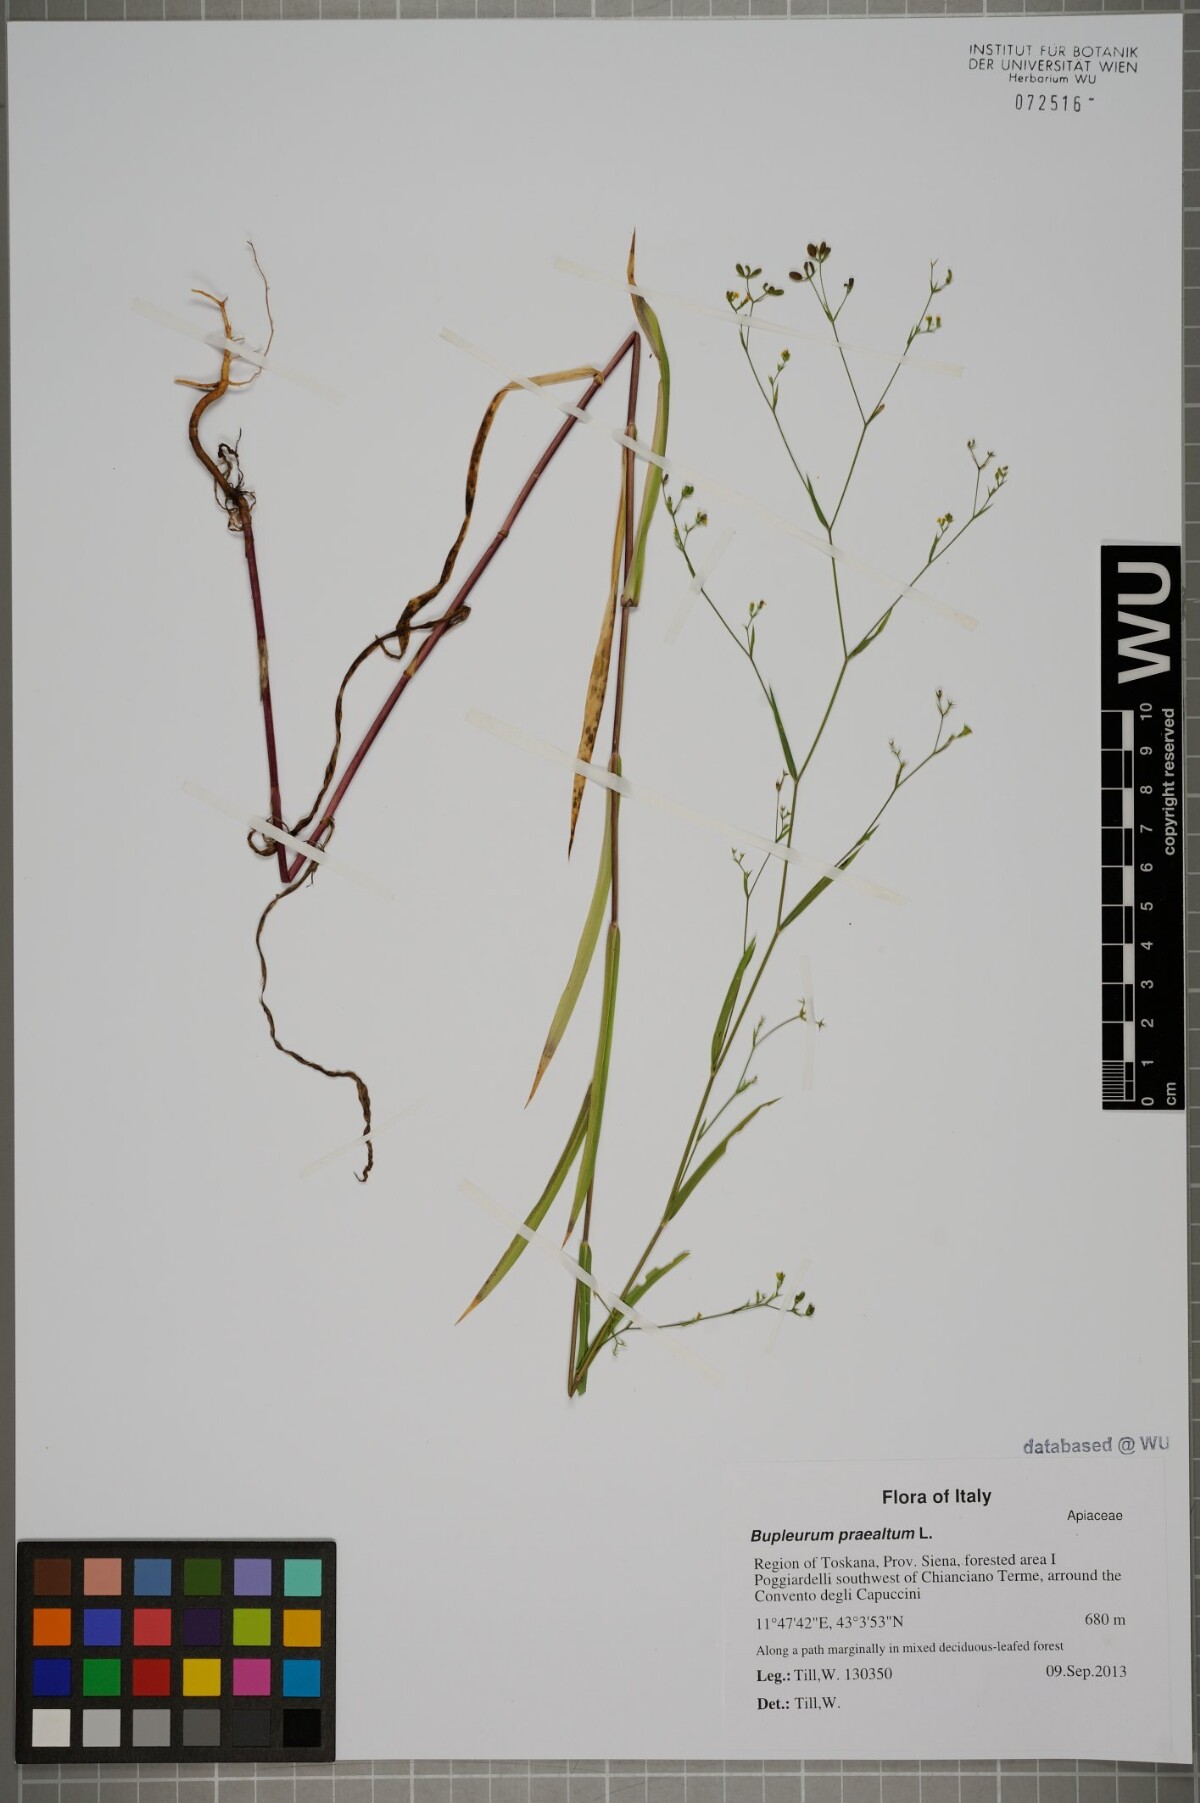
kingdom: Plantae
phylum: Tracheophyta
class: Magnoliopsida
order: Apiales
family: Apiaceae
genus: Bupleurum
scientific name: Bupleurum praealtum
